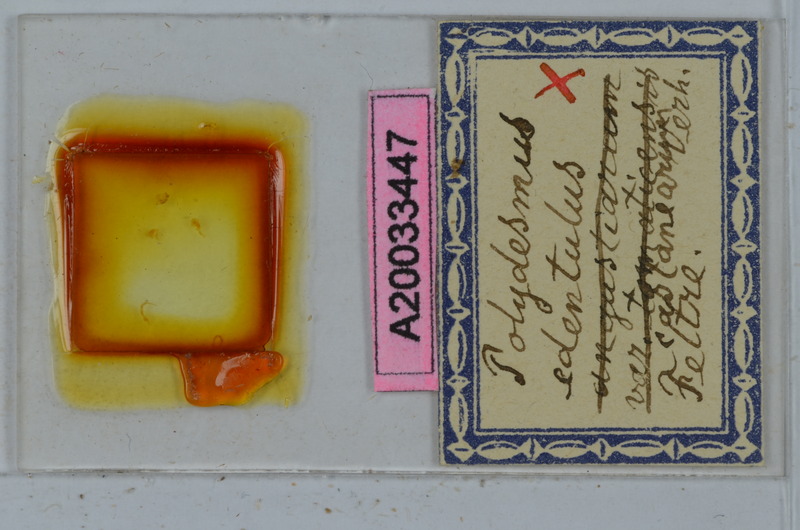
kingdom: Animalia
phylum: Arthropoda
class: Diplopoda
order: Polydesmida
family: Polydesmidae
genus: Polydesmus
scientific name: Polydesmus edentulus
